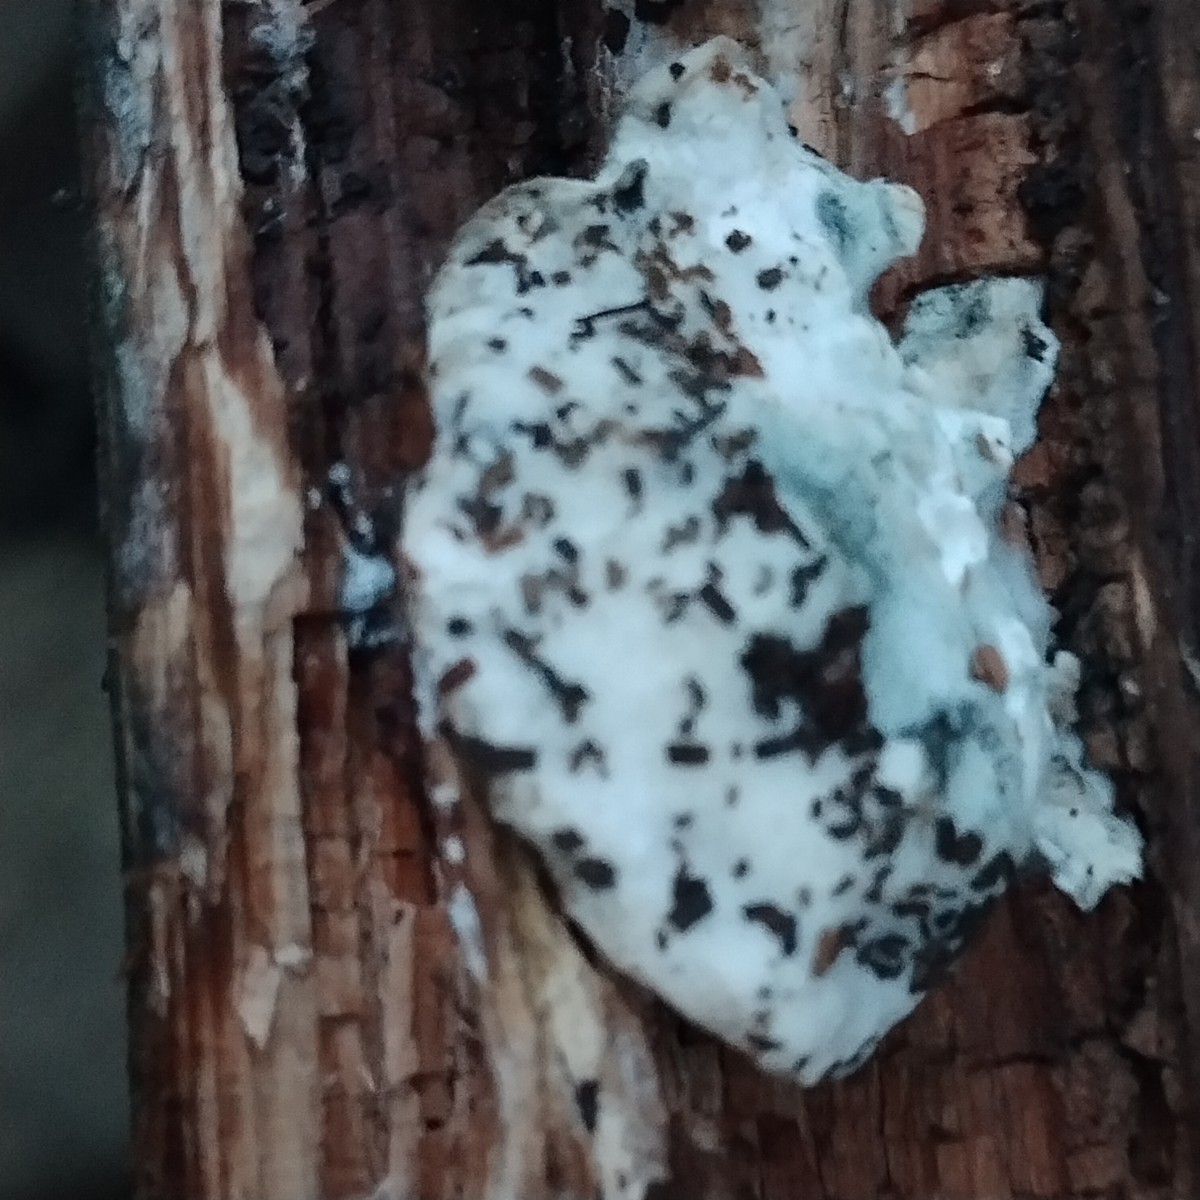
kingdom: Fungi
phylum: Basidiomycota
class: Agaricomycetes
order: Polyporales
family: Polyporaceae
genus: Cyanosporus
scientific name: Cyanosporus caesius
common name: blålig kødporesvamp
